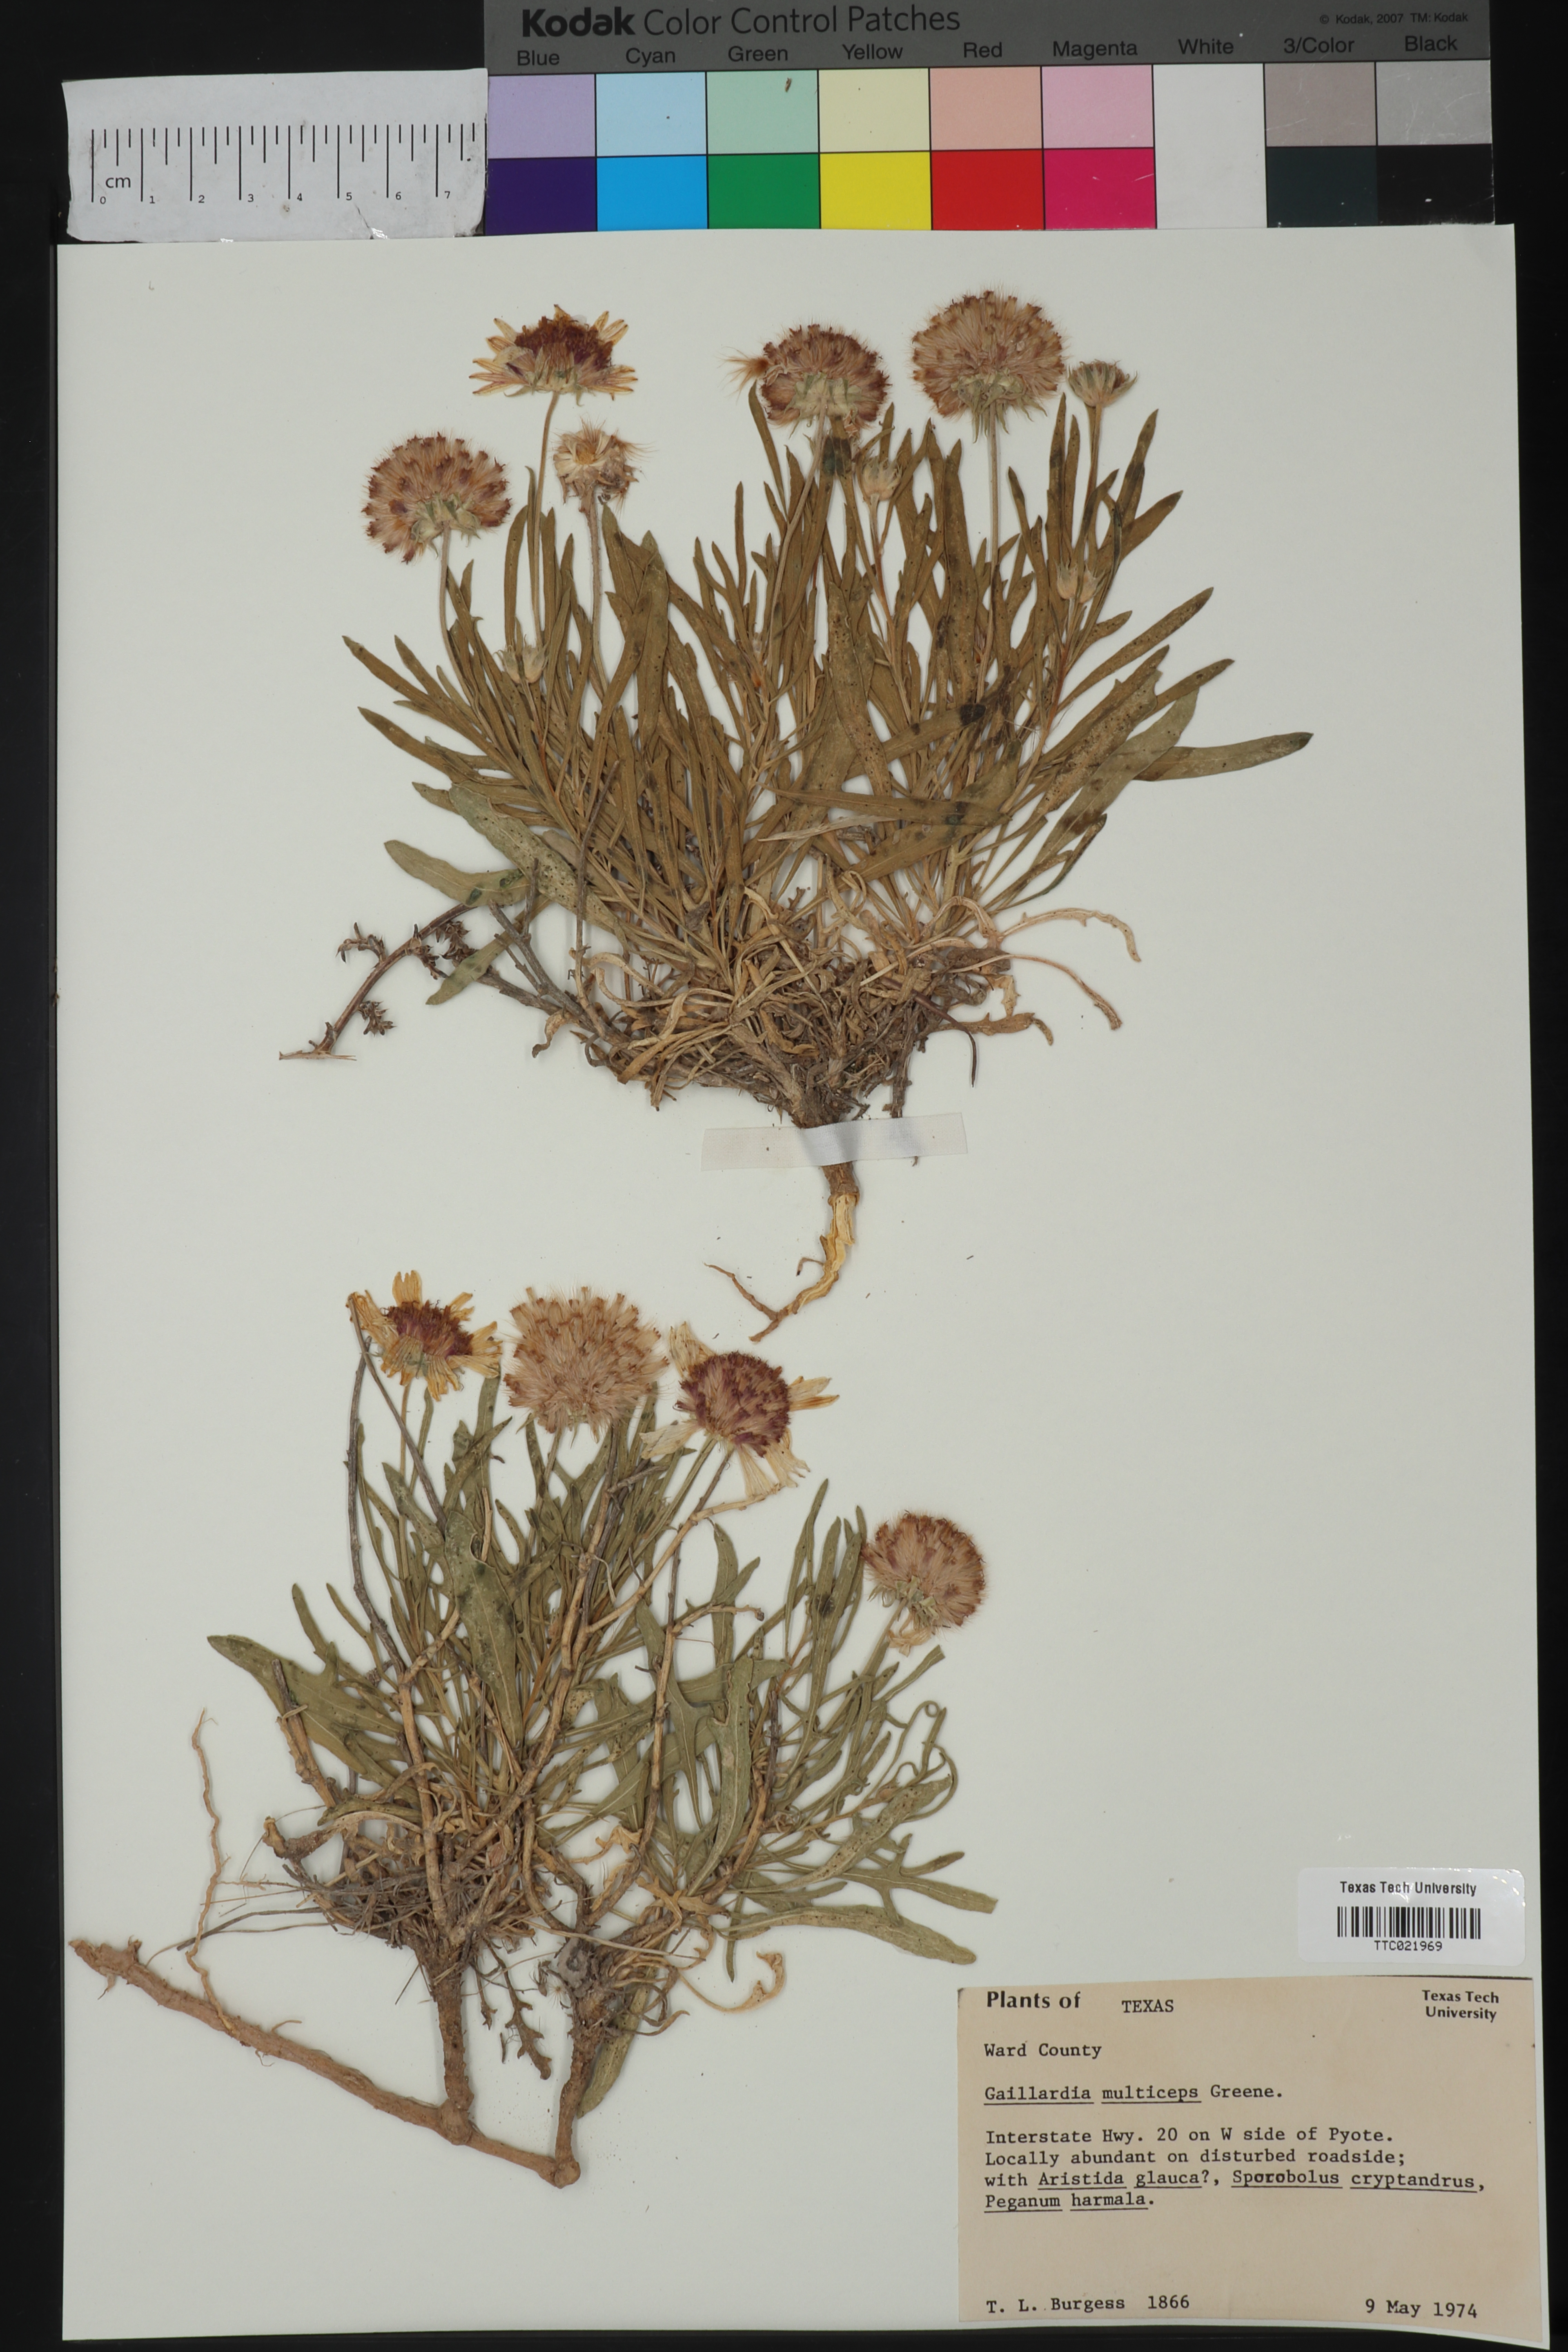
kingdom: Plantae
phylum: Tracheophyta
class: Magnoliopsida
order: Asterales
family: Asteraceae
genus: Gaillardia
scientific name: Gaillardia multiceps
